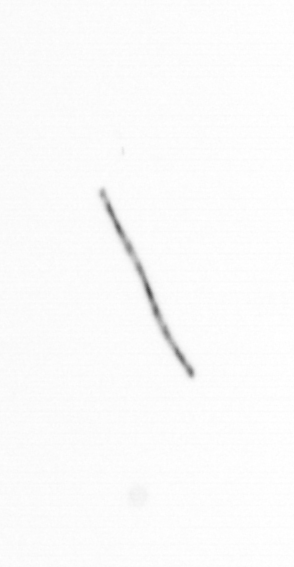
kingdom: Chromista
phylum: Ochrophyta
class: Bacillariophyceae
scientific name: Bacillariophyceae
